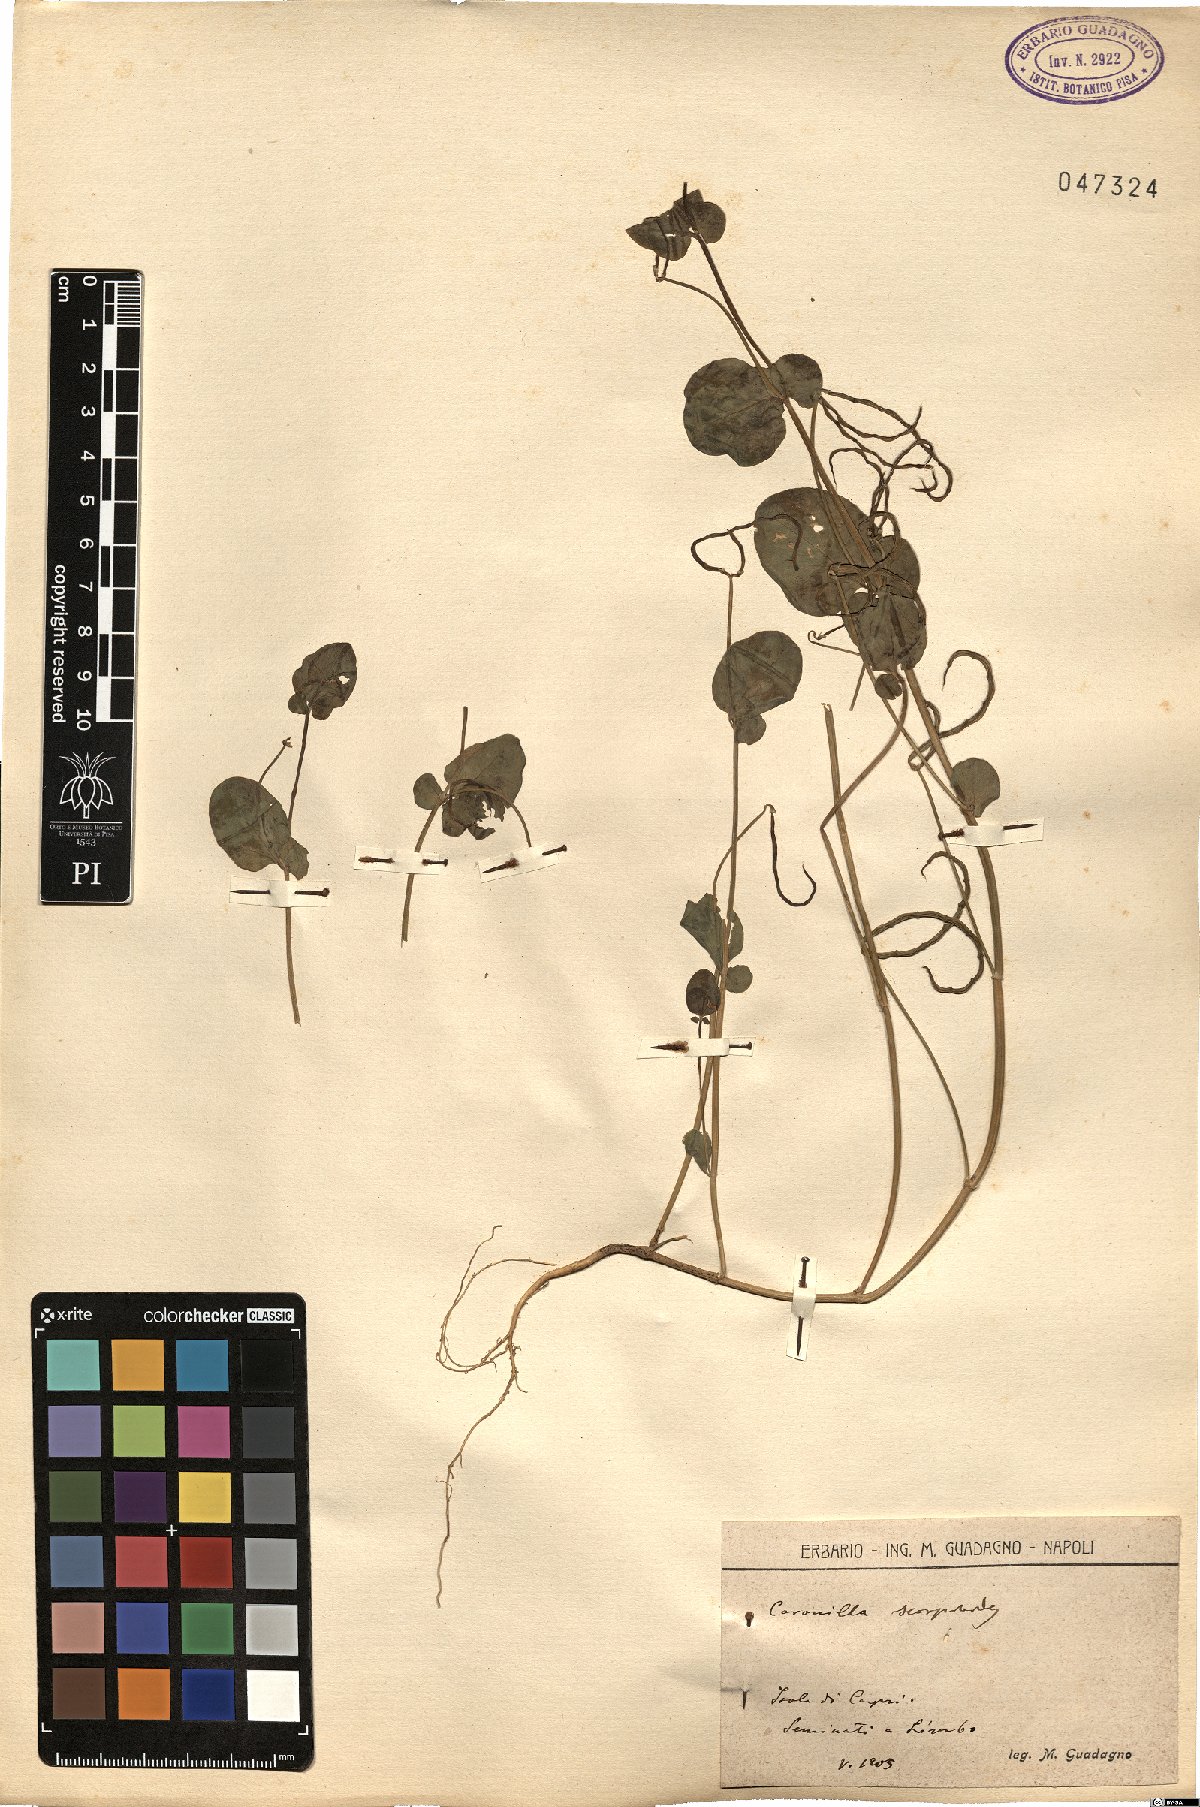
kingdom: Plantae
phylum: Tracheophyta
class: Magnoliopsida
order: Fabales
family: Fabaceae
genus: Coronilla
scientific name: Coronilla scorpioides
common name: Annual scorpion-vetch
